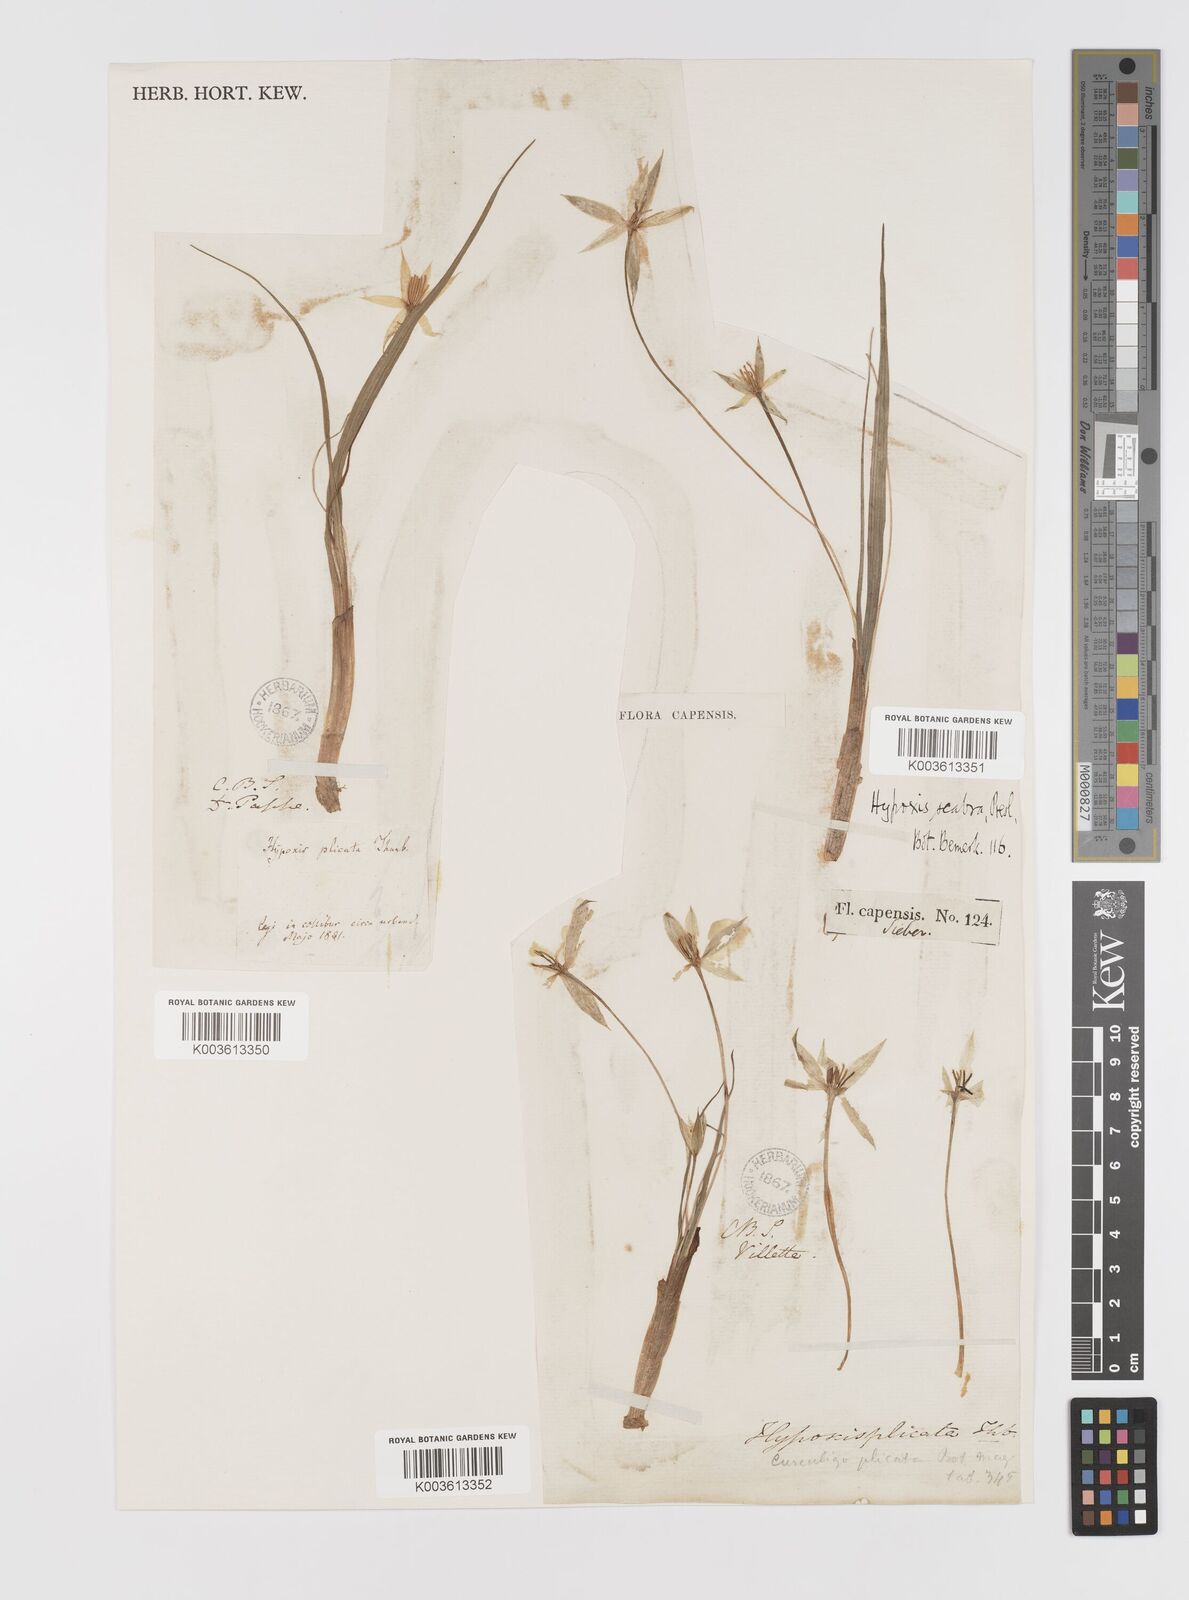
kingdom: Plantae
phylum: Tracheophyta
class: Liliopsida
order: Asparagales
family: Hypoxidaceae
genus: Empodium
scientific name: Empodium plicatum
